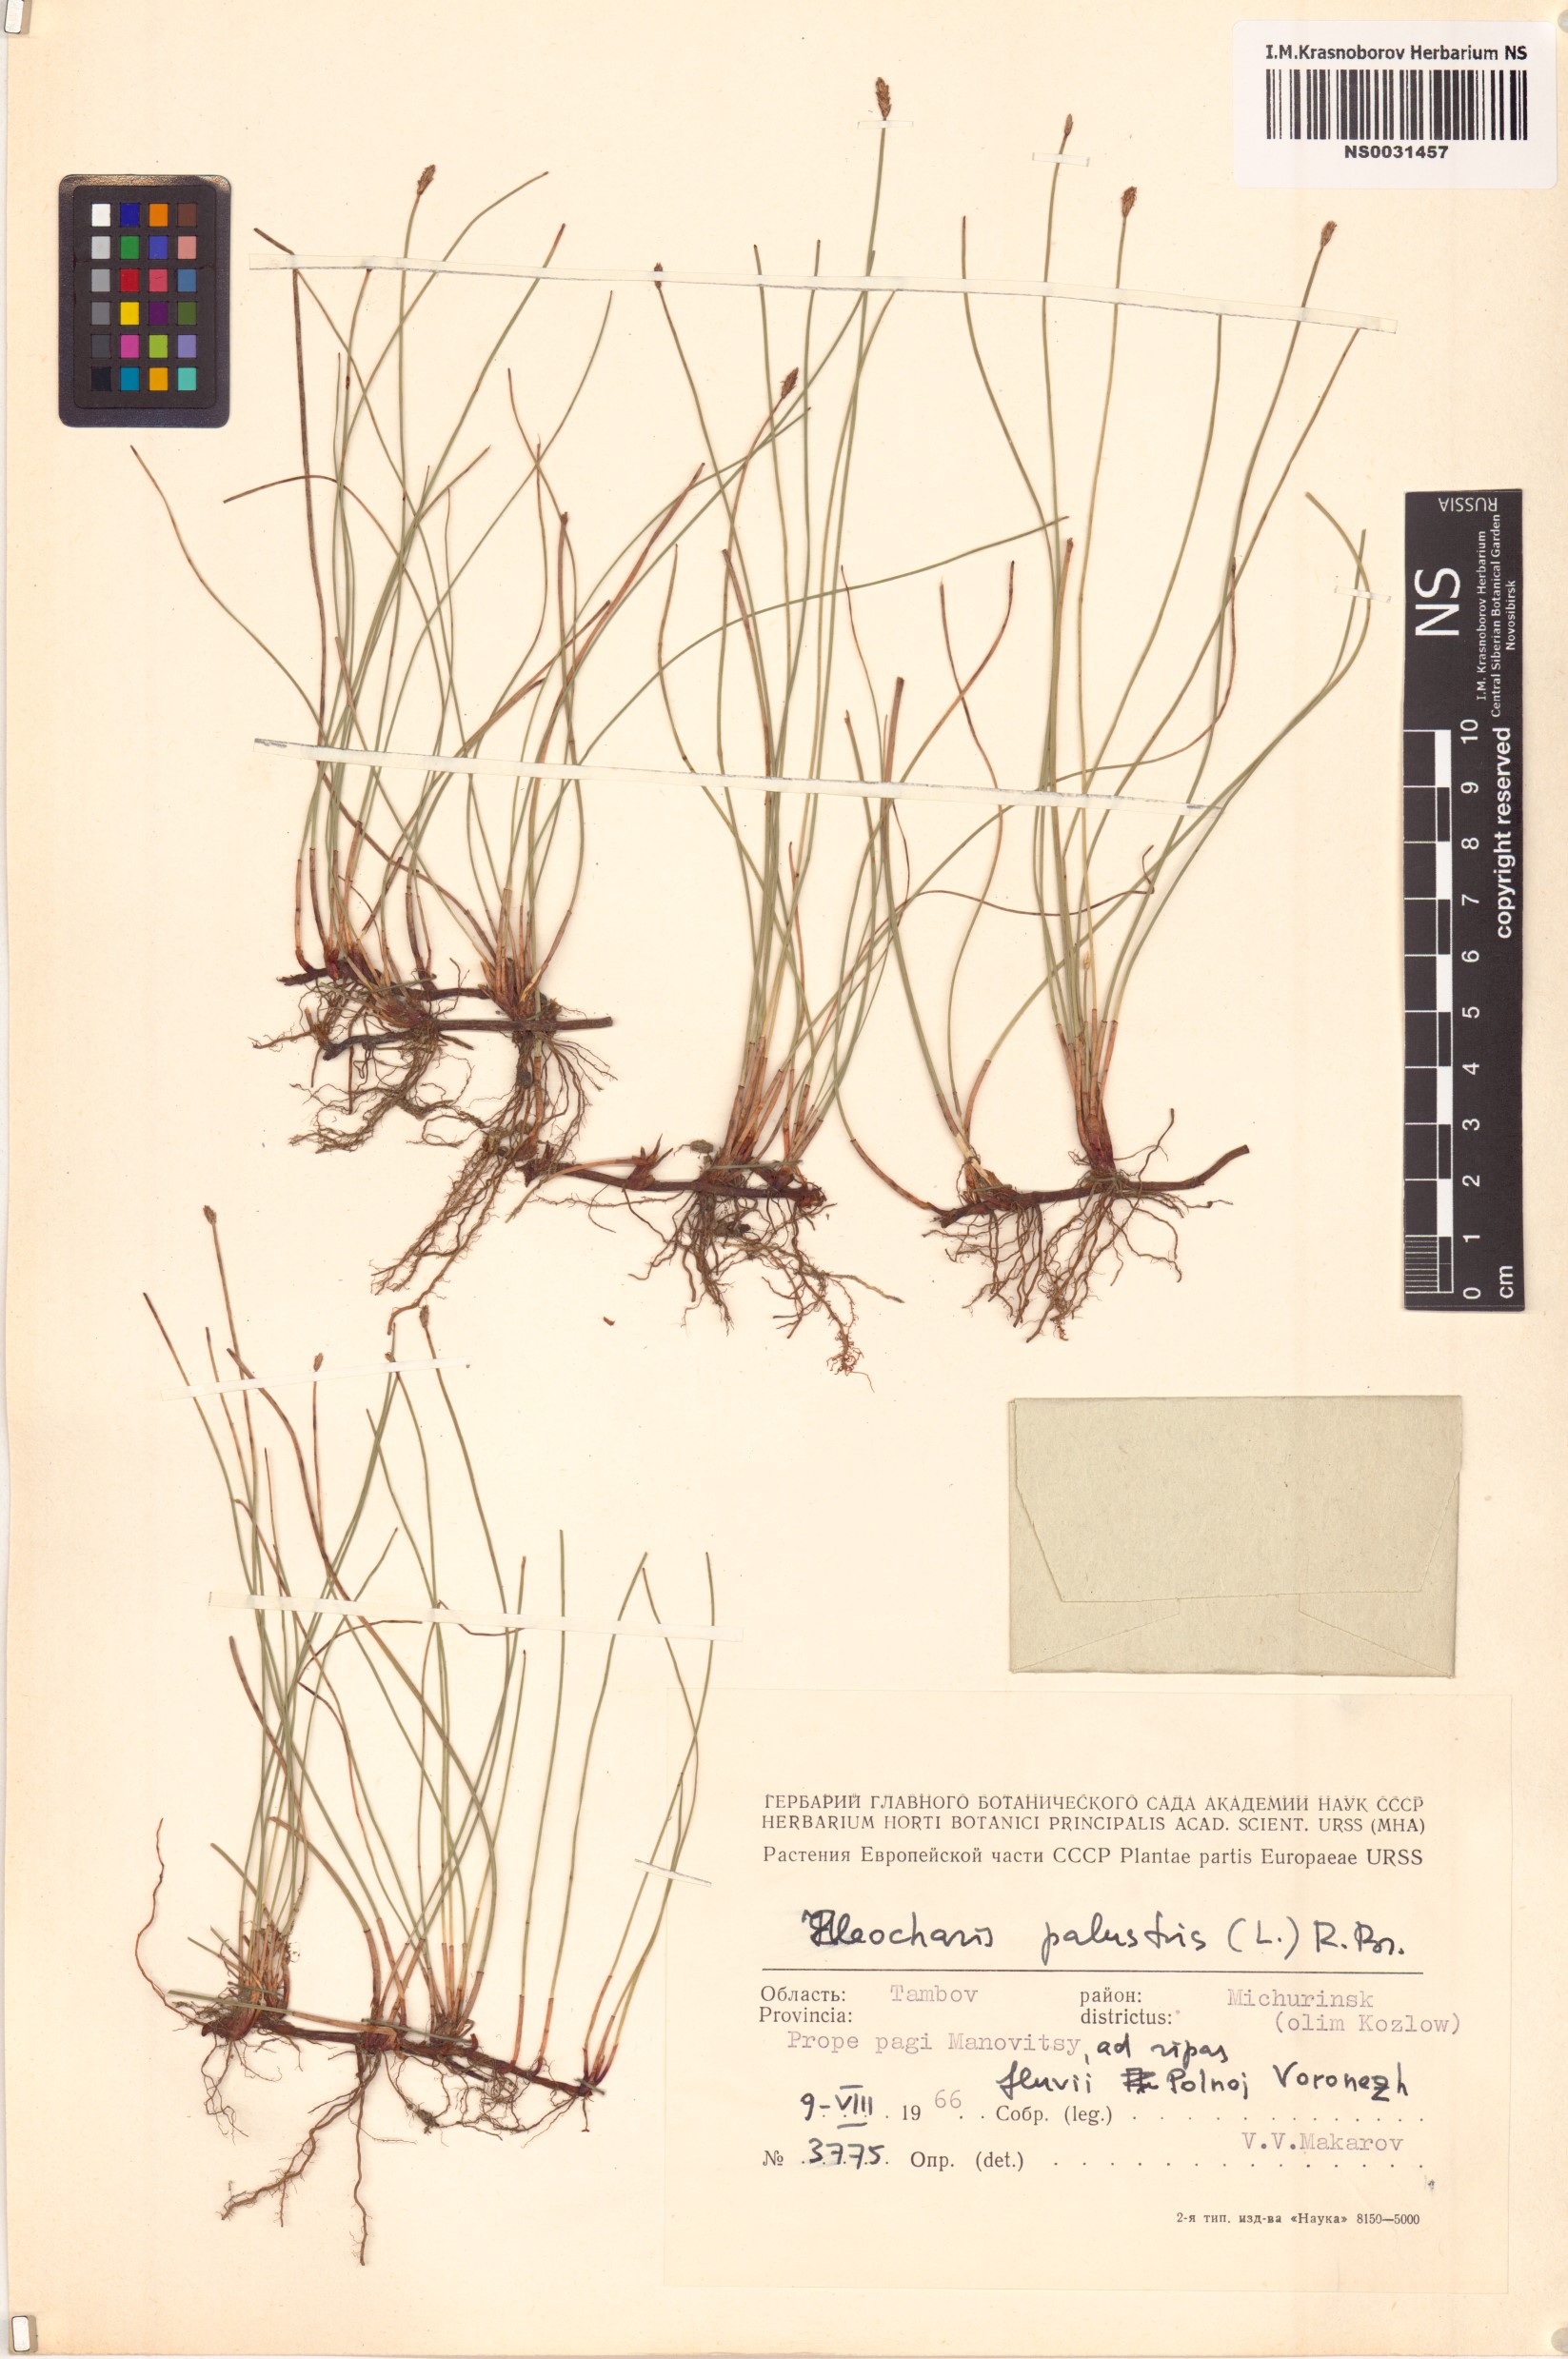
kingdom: Plantae
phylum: Tracheophyta
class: Liliopsida
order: Poales
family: Cyperaceae
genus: Eleocharis
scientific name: Eleocharis palustris
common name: Common spike-rush
